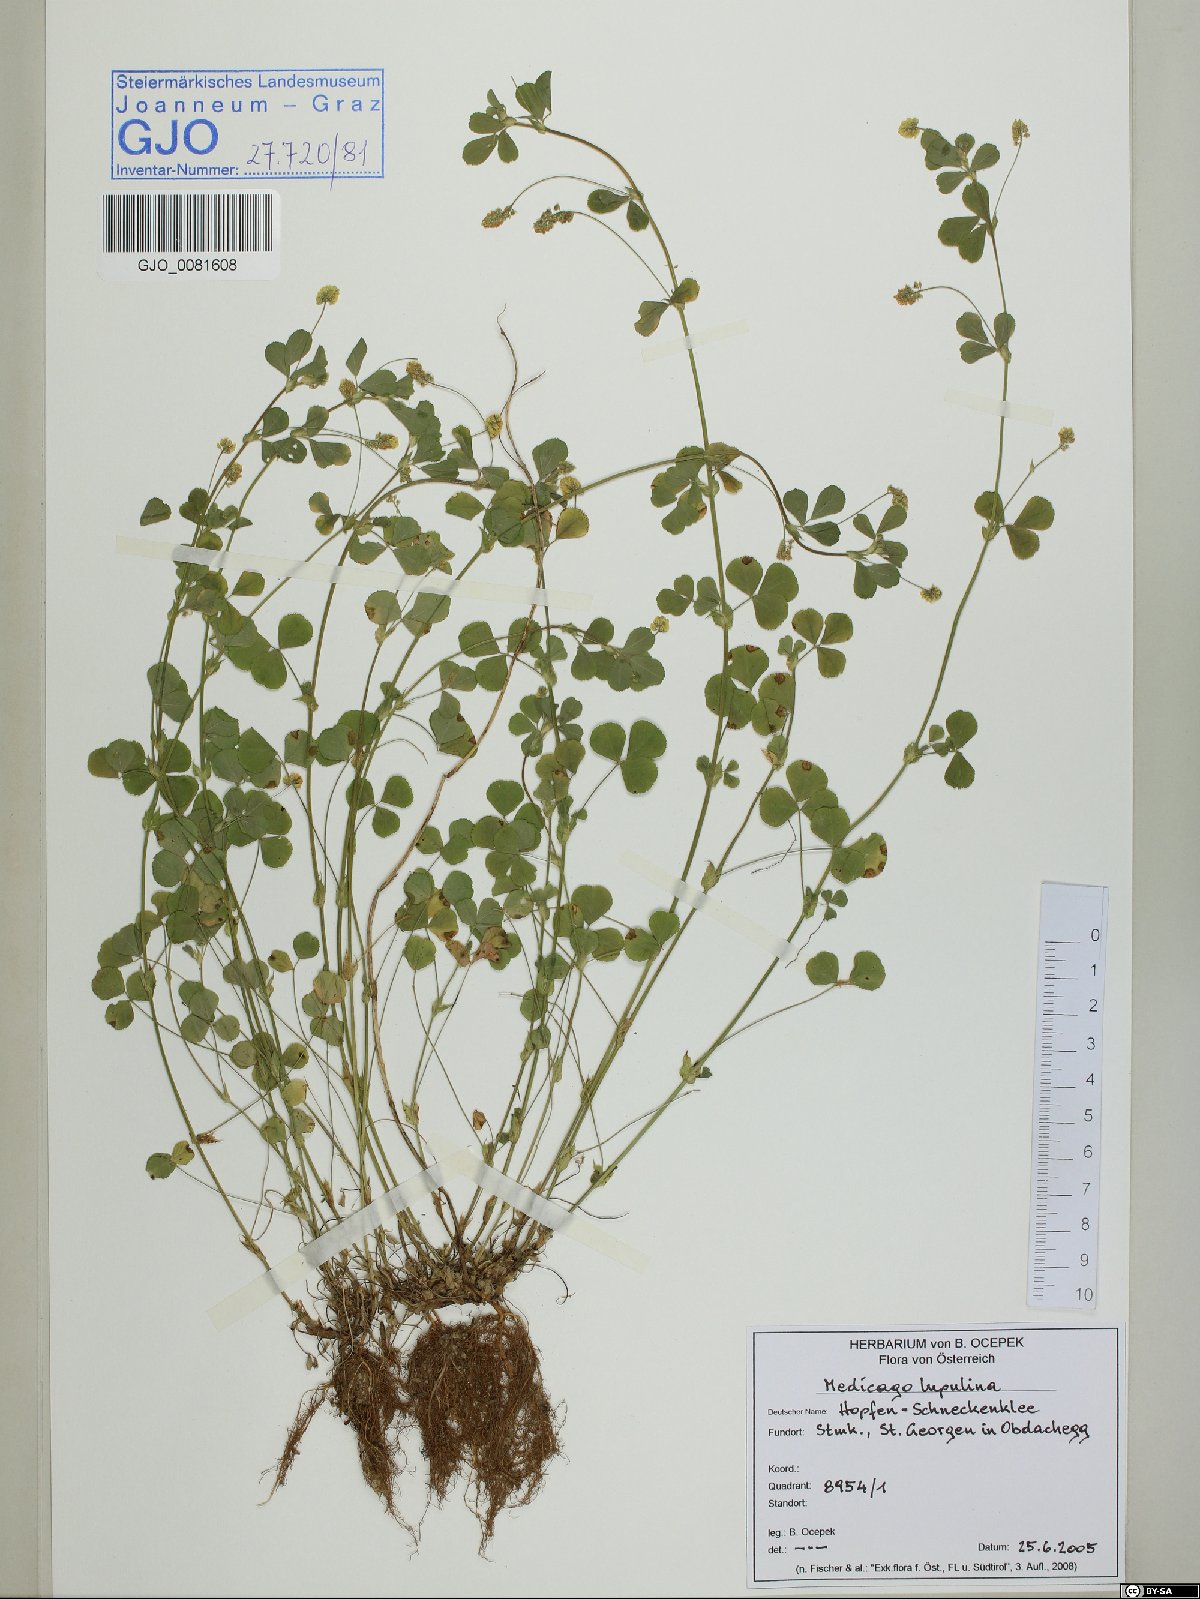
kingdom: Plantae
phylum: Tracheophyta
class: Magnoliopsida
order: Fabales
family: Fabaceae
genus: Medicago
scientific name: Medicago lupulina
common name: Black medick
